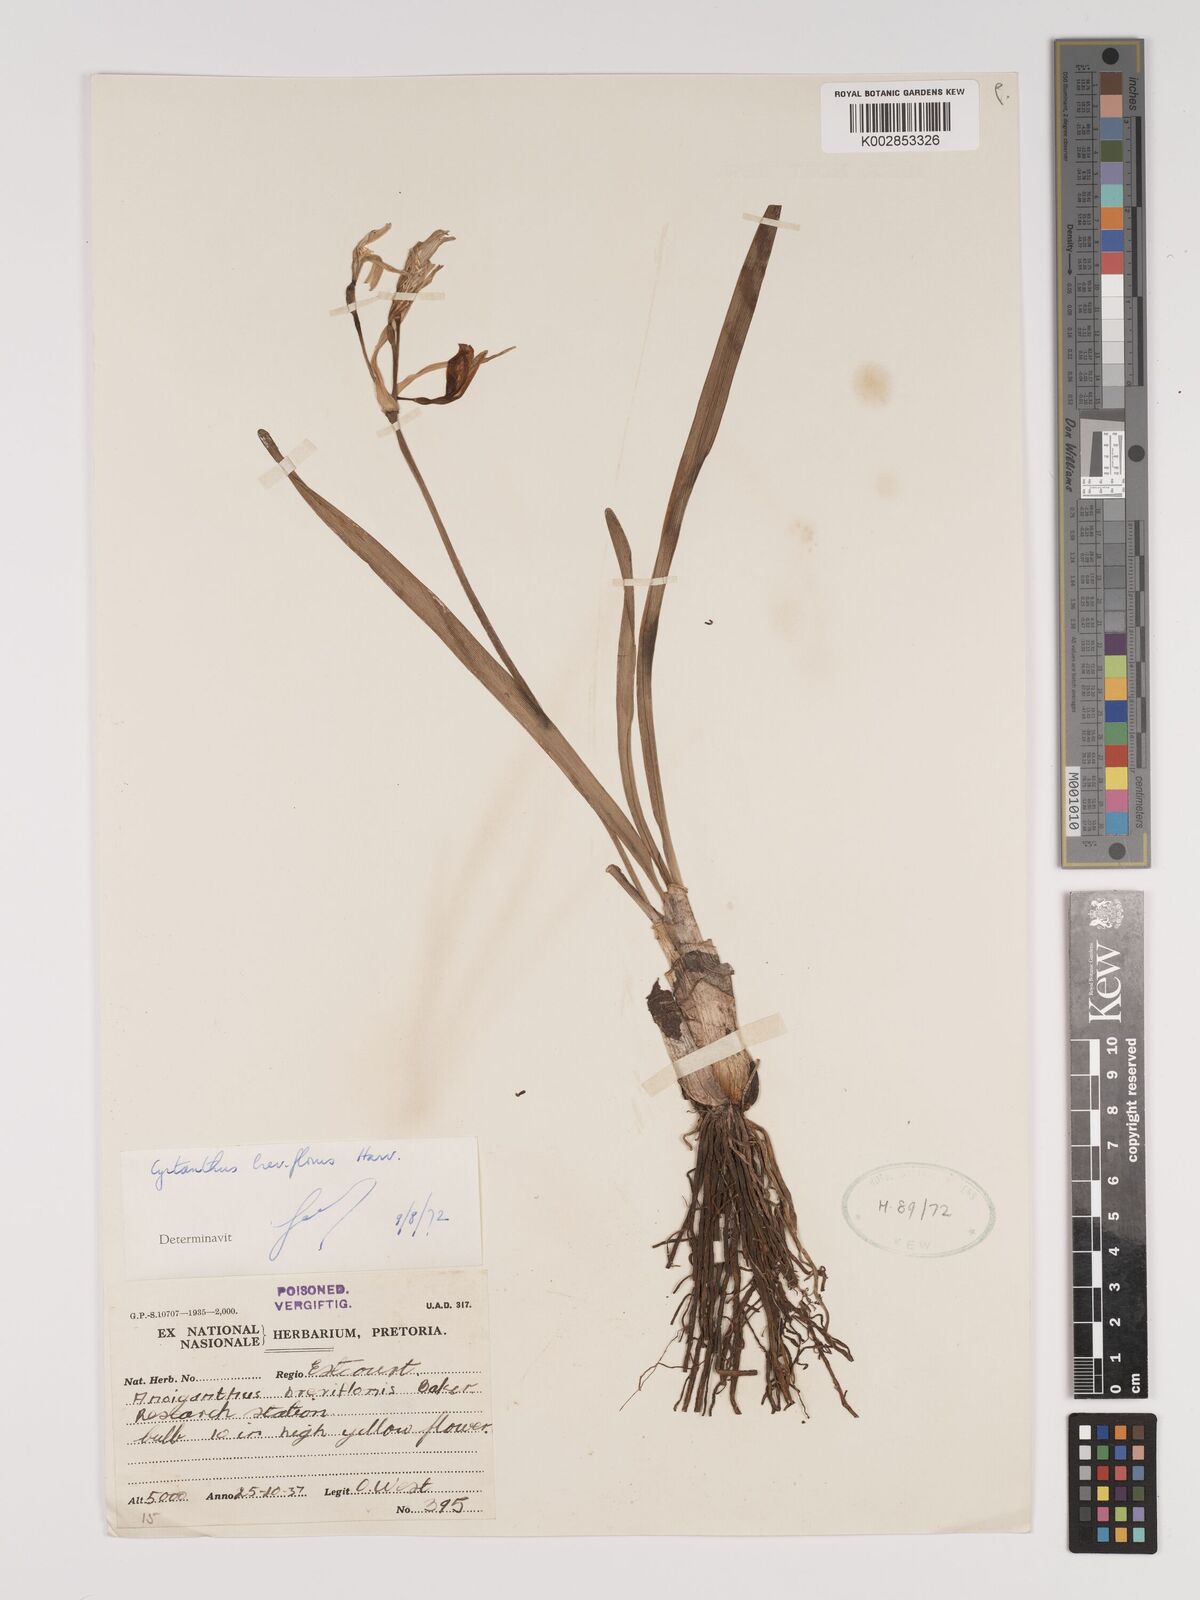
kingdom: Plantae
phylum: Tracheophyta
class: Liliopsida
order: Asparagales
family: Amaryllidaceae
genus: Cyrtanthus
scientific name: Cyrtanthus breviflorus
